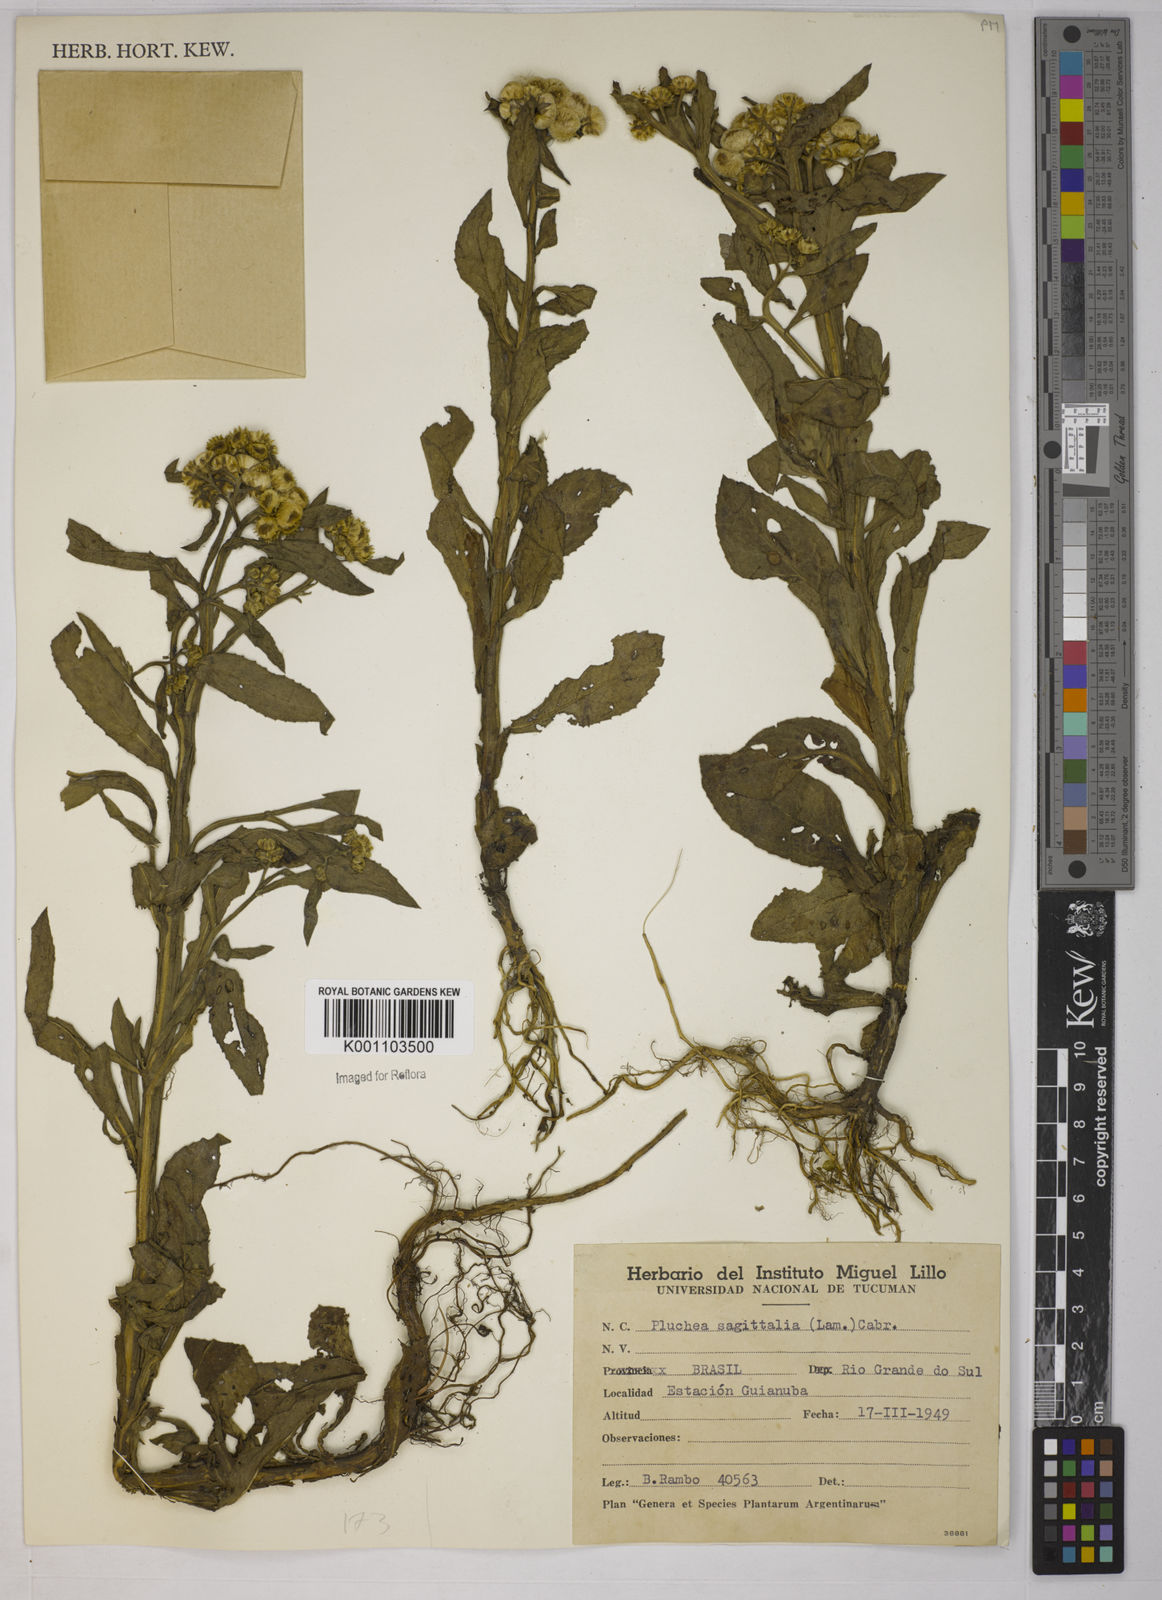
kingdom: Plantae
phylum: Tracheophyta
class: Magnoliopsida
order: Asterales
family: Asteraceae
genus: Pluchea
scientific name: Pluchea sagittalis
